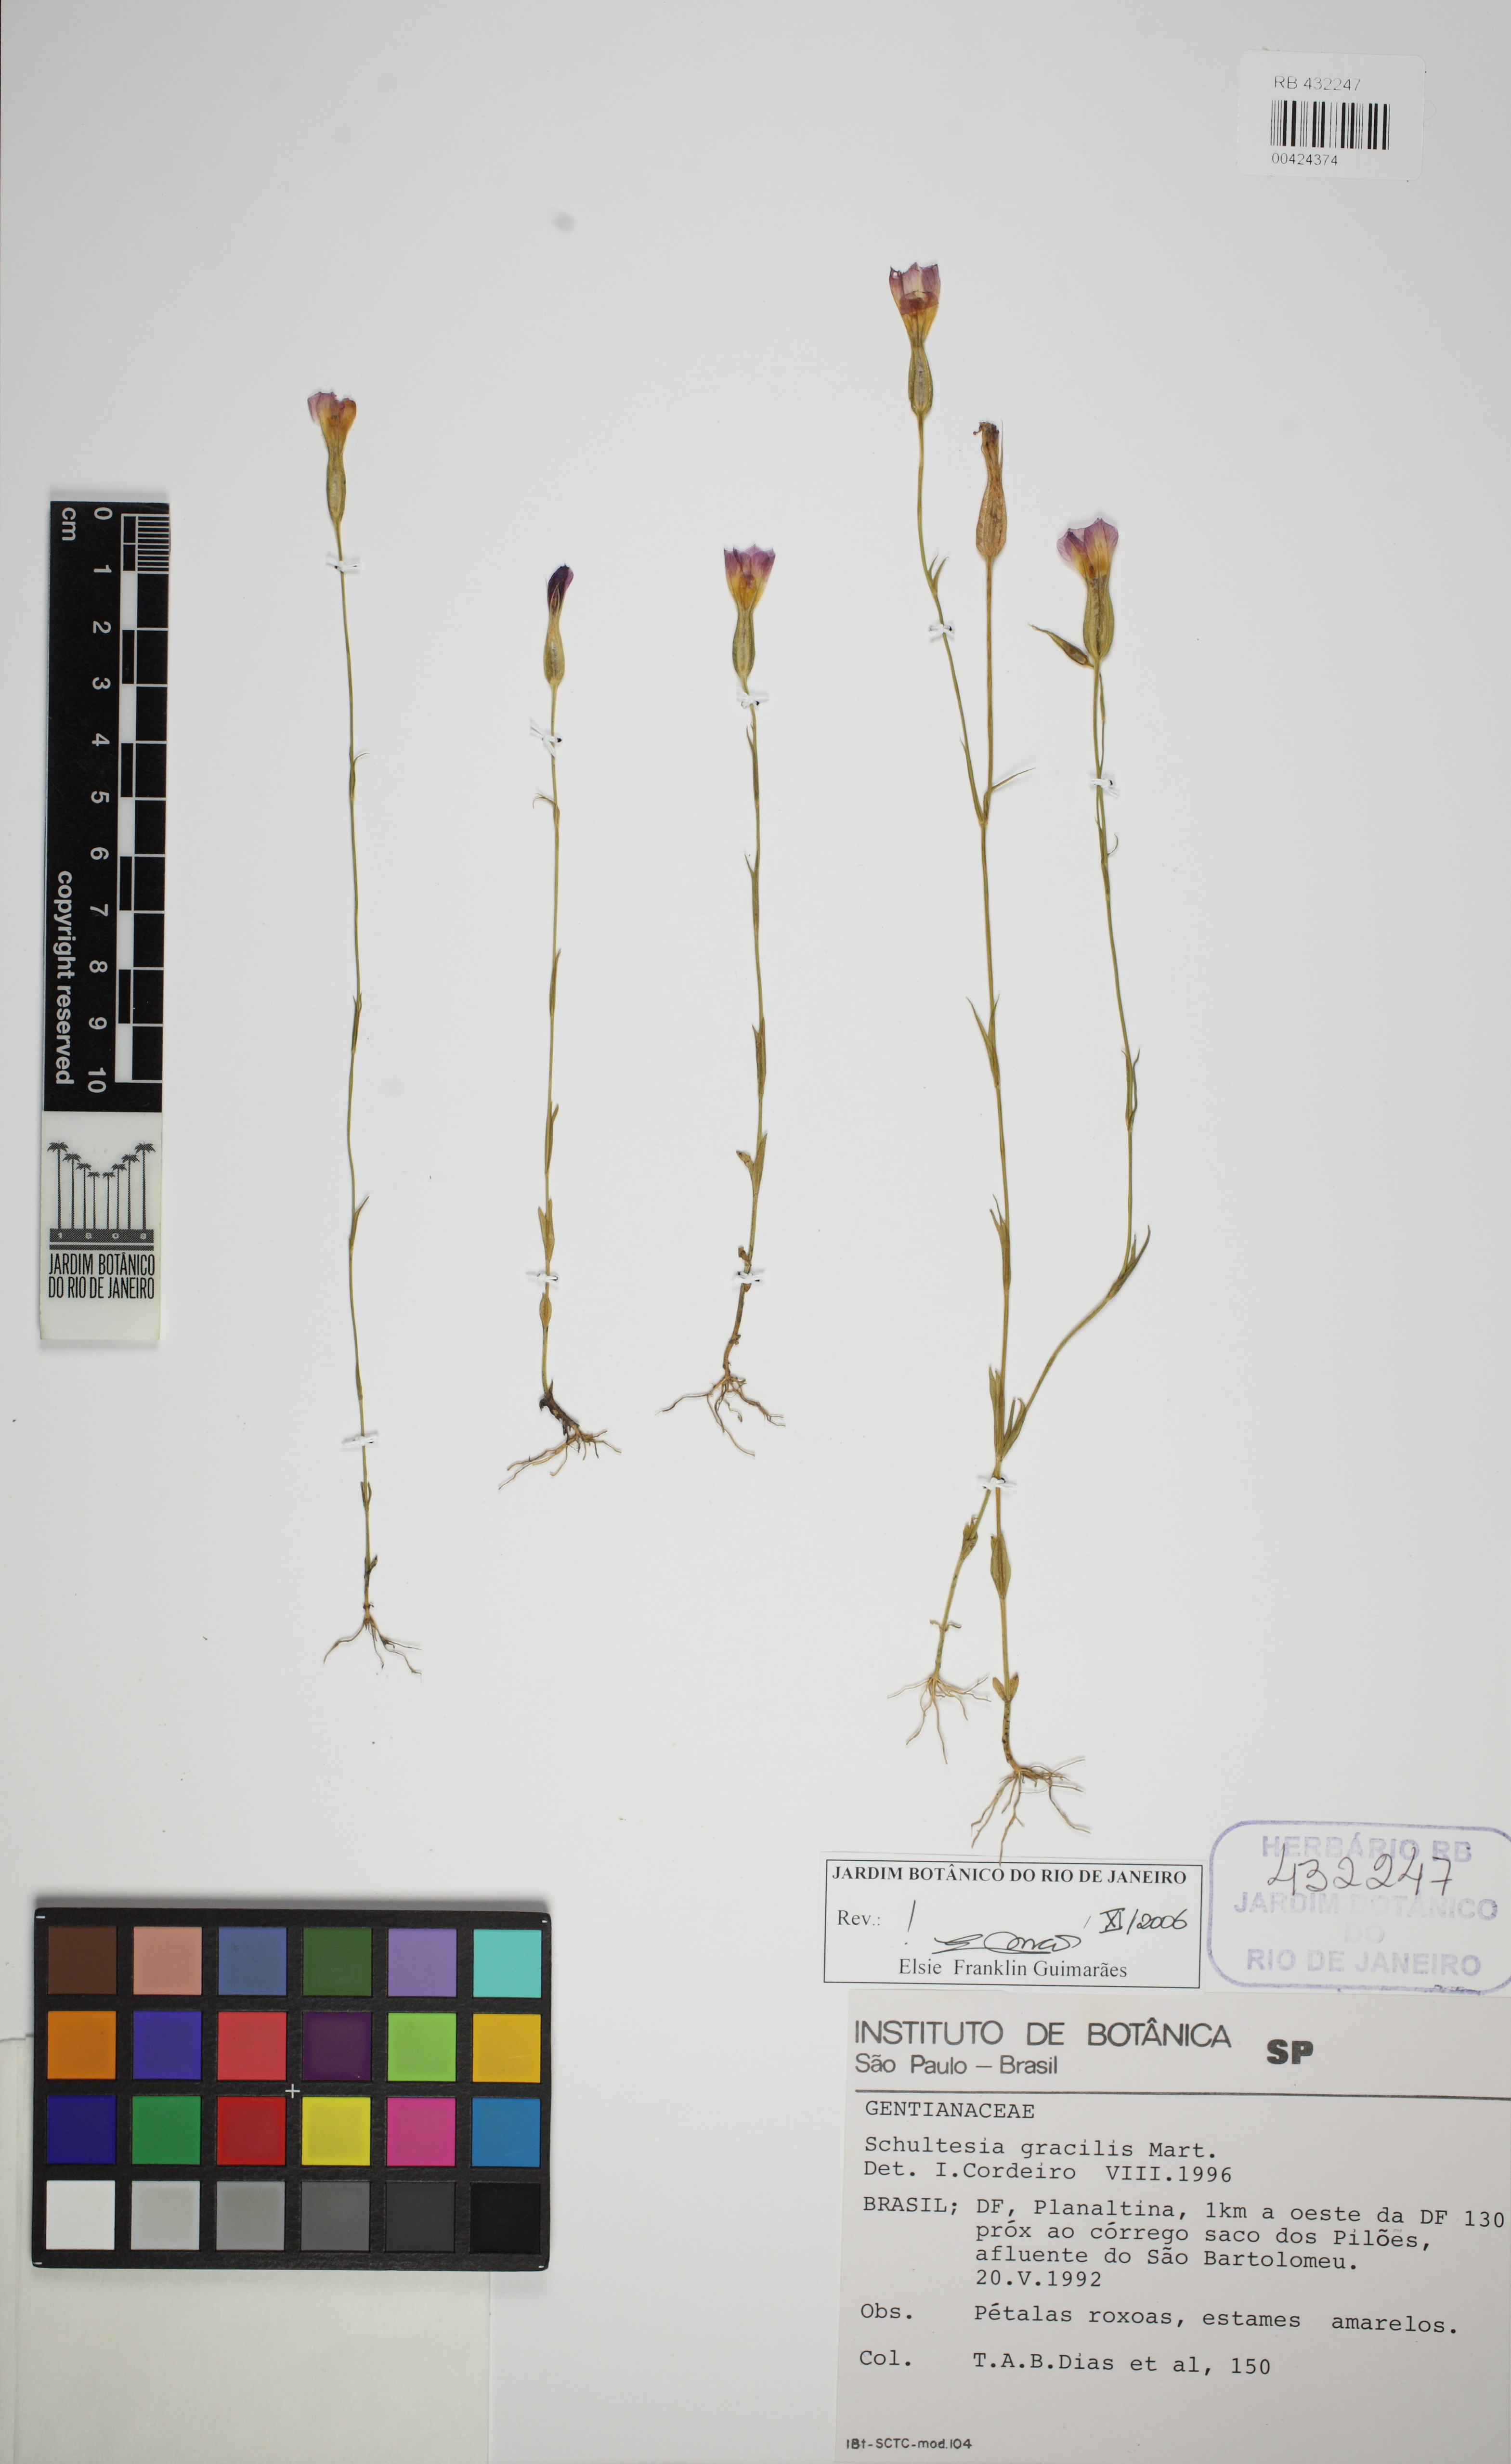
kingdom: Plantae
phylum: Tracheophyta
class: Magnoliopsida
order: Gentianales
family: Gentianaceae
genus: Schultesia
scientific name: Schultesia gracilis
